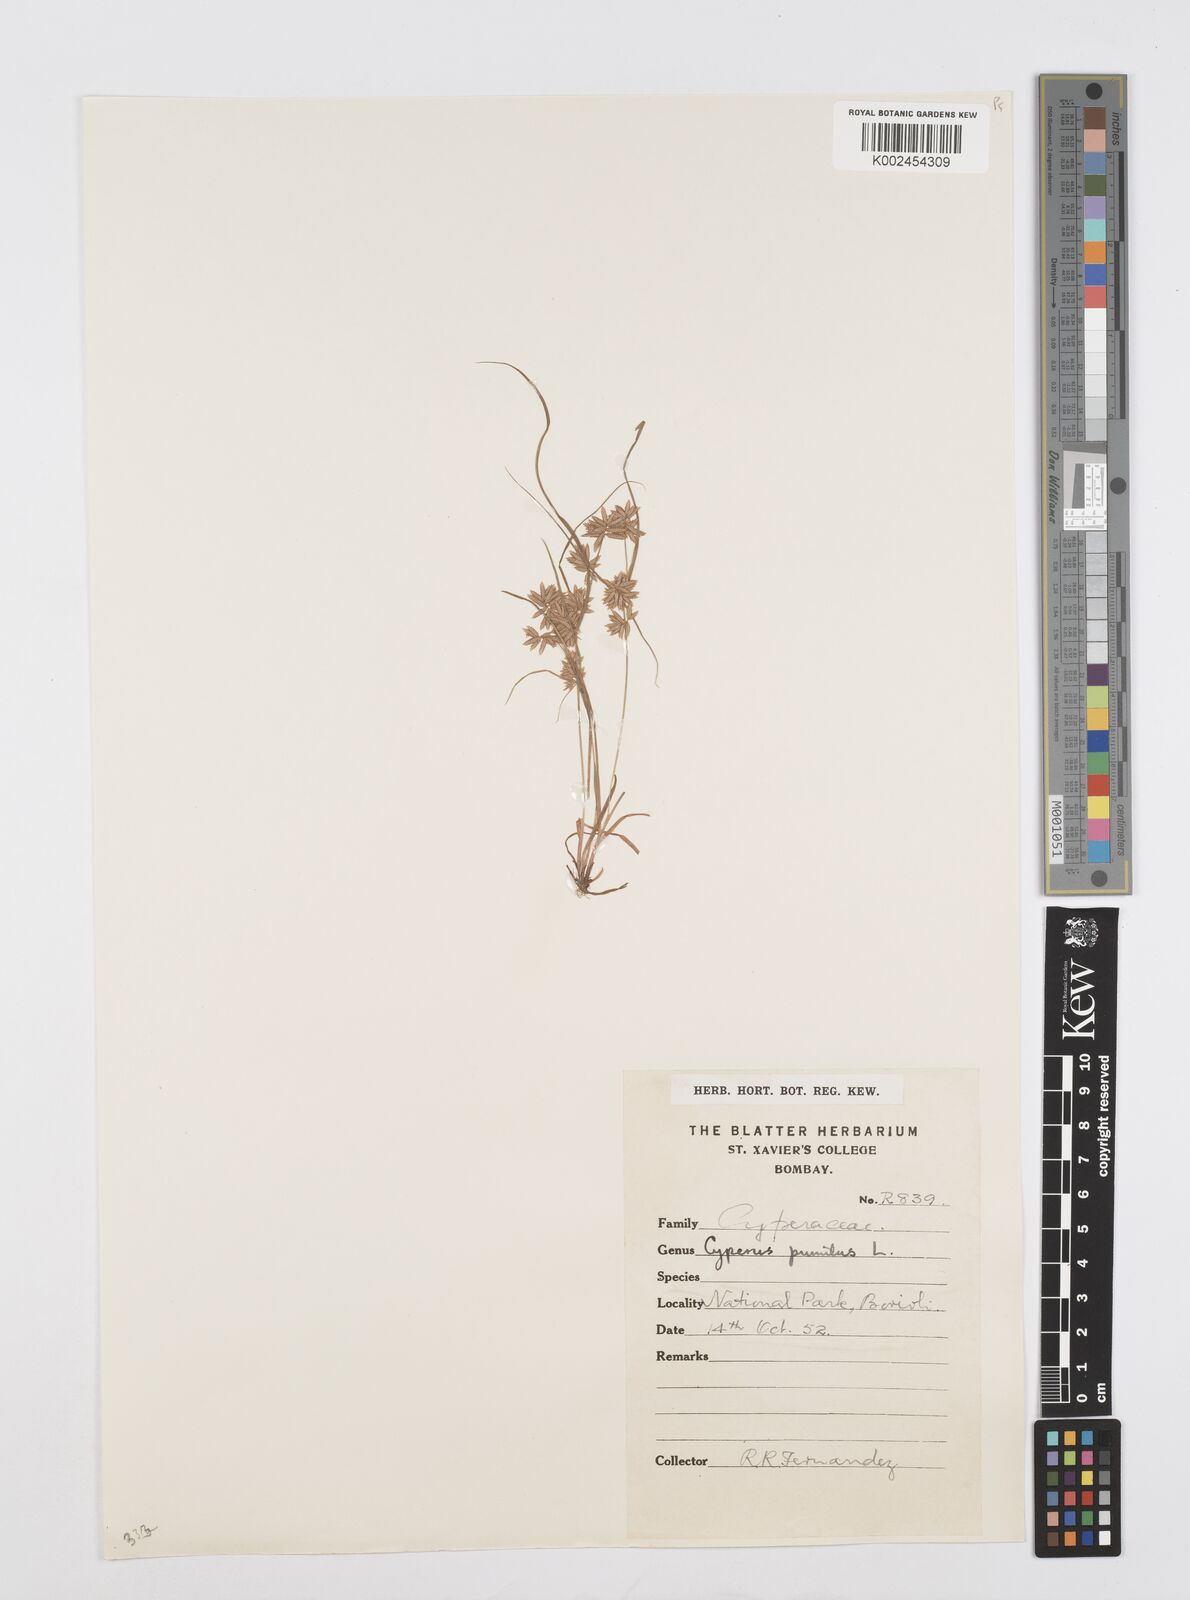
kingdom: Plantae
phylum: Tracheophyta
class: Liliopsida
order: Poales
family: Cyperaceae
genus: Cyperus
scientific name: Cyperus pumilus
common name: Low flatsedge
